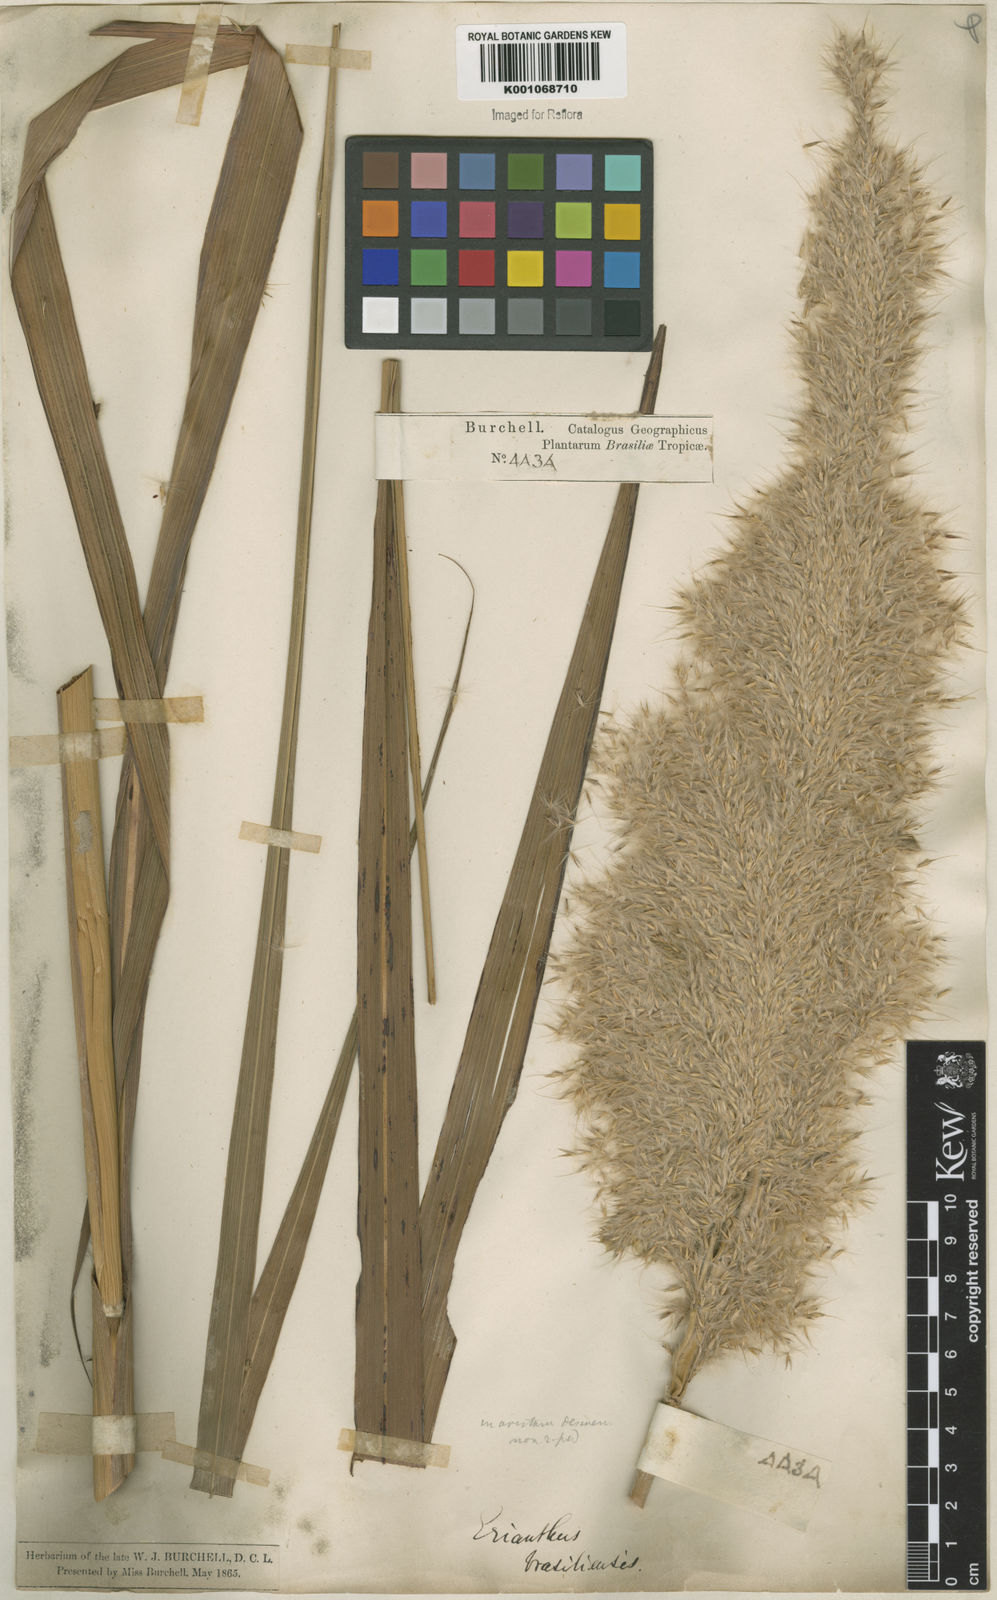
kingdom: Plantae
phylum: Tracheophyta
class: Liliopsida
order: Poales
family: Poaceae
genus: Erianthus
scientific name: Erianthus asper
